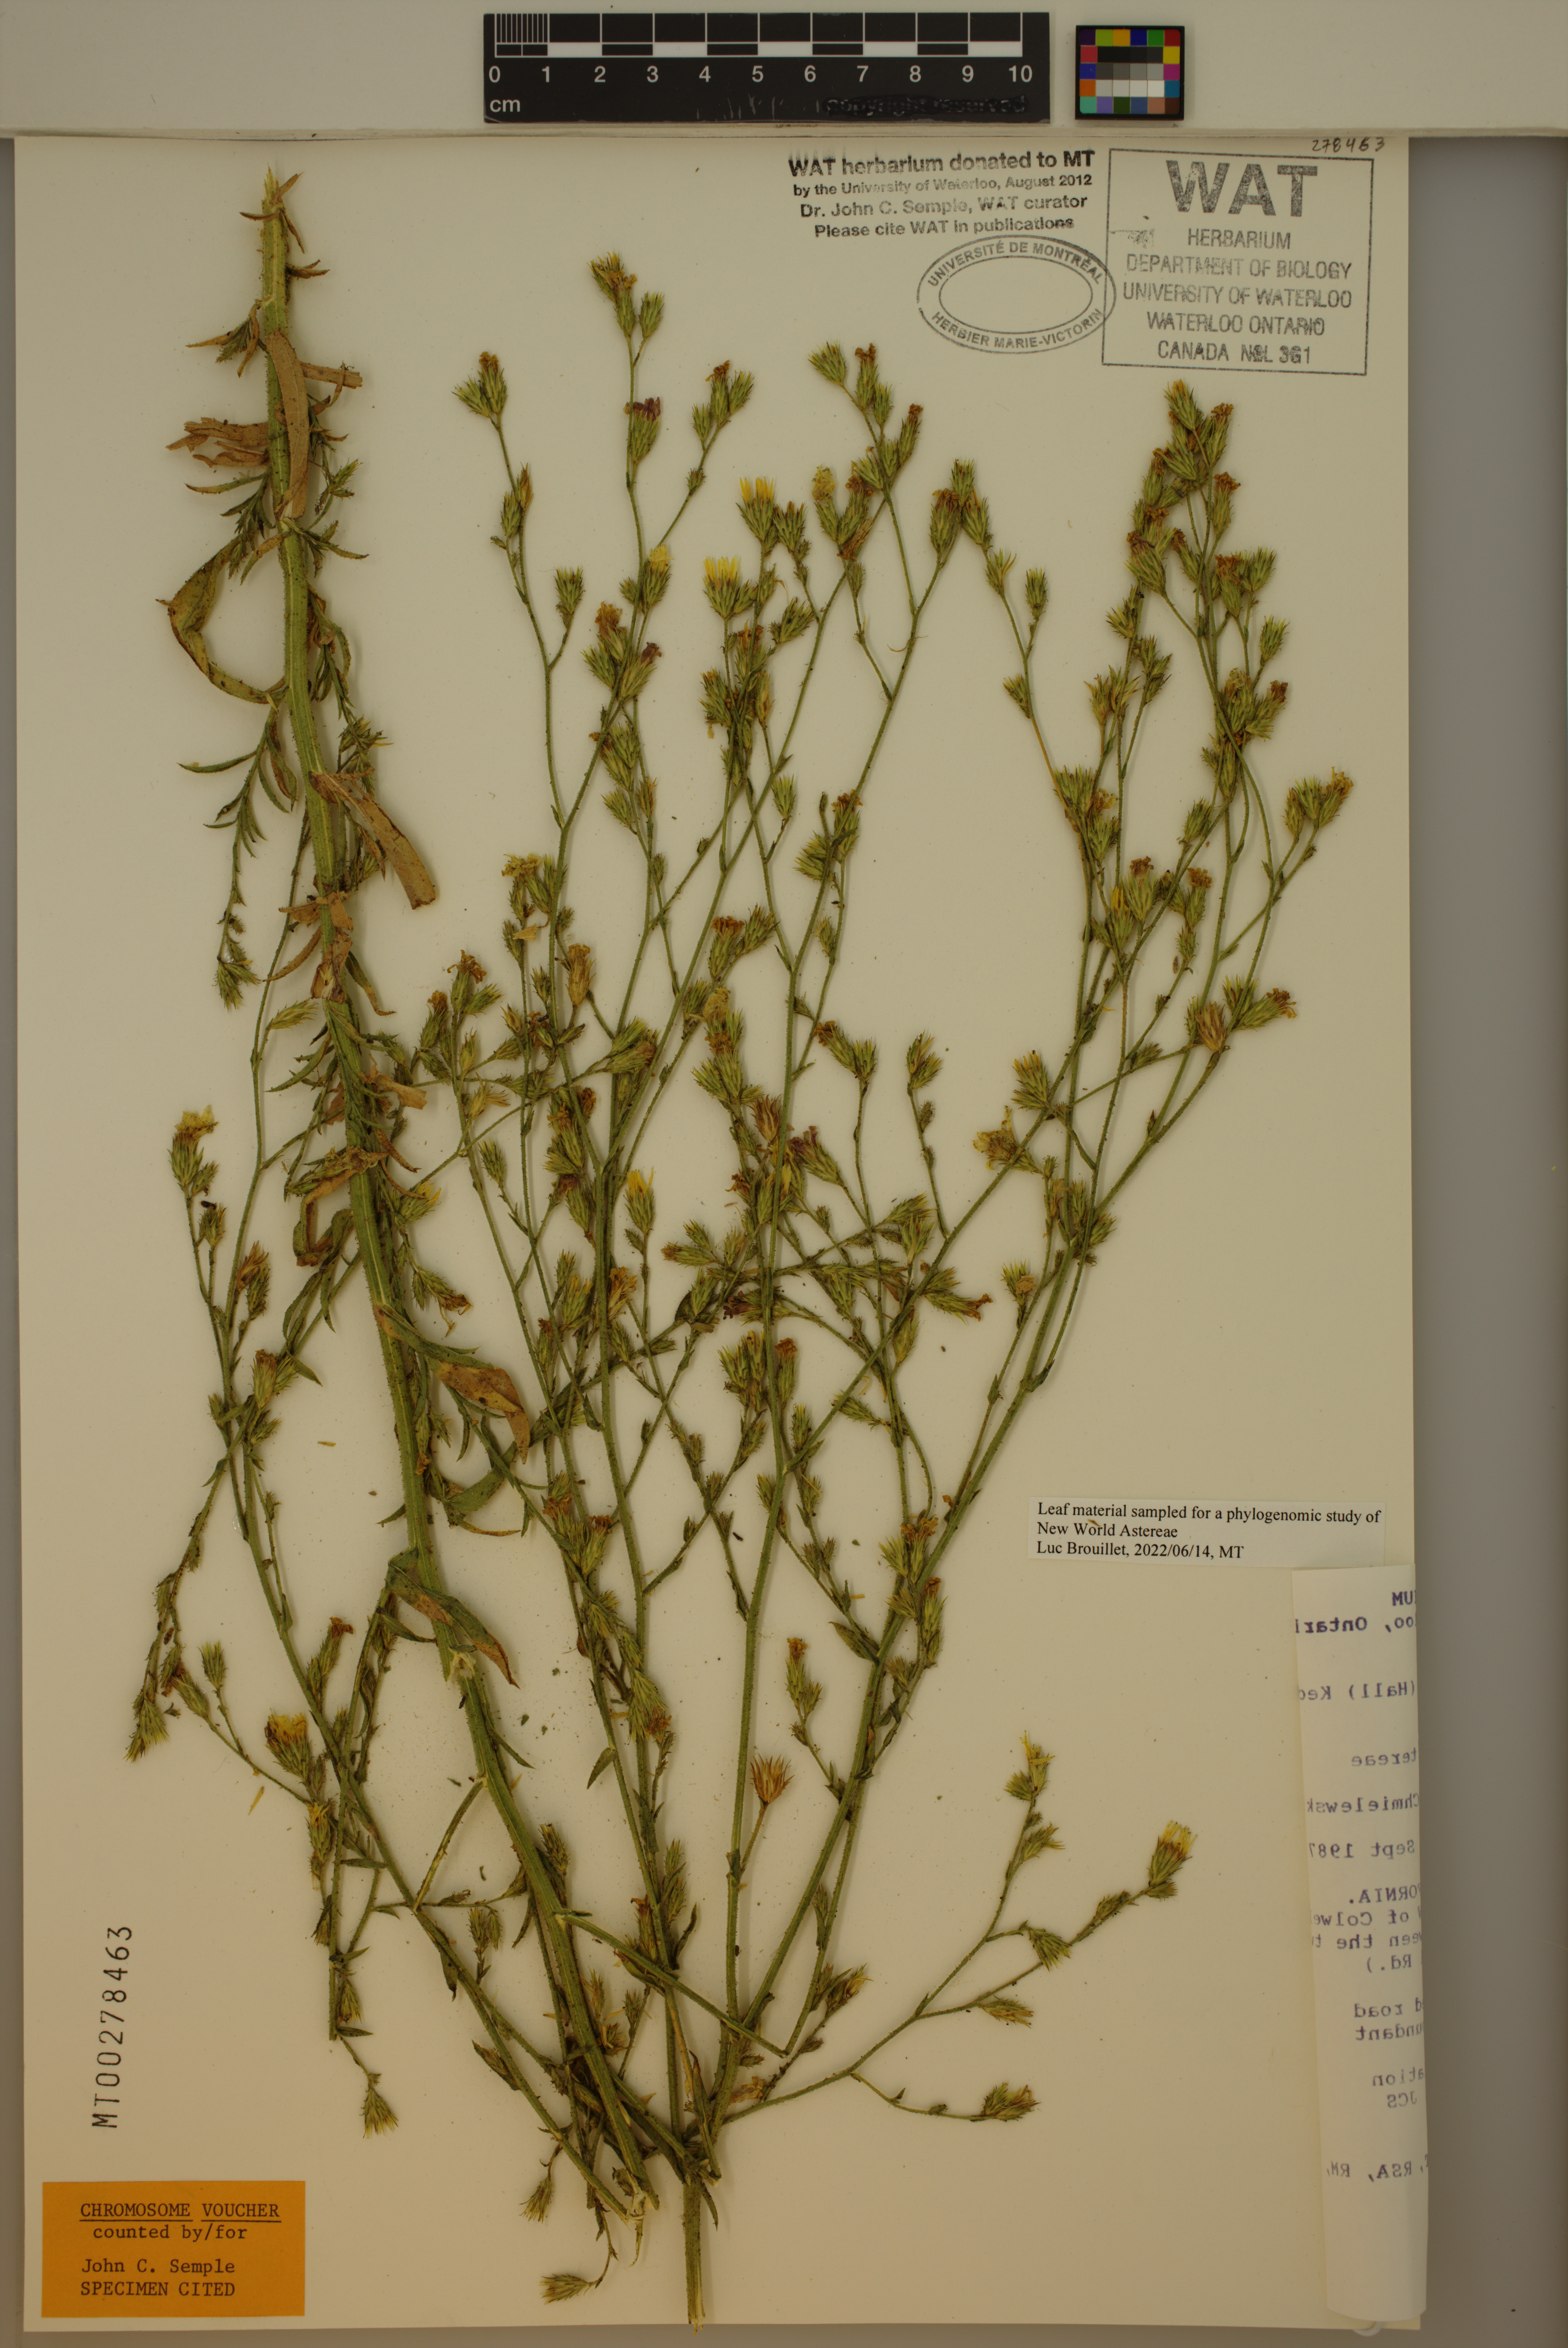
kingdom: Plantae
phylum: Tracheophyta
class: Magnoliopsida
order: Asterales
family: Asteraceae
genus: Benitoa
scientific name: Benitoa occidentalis
